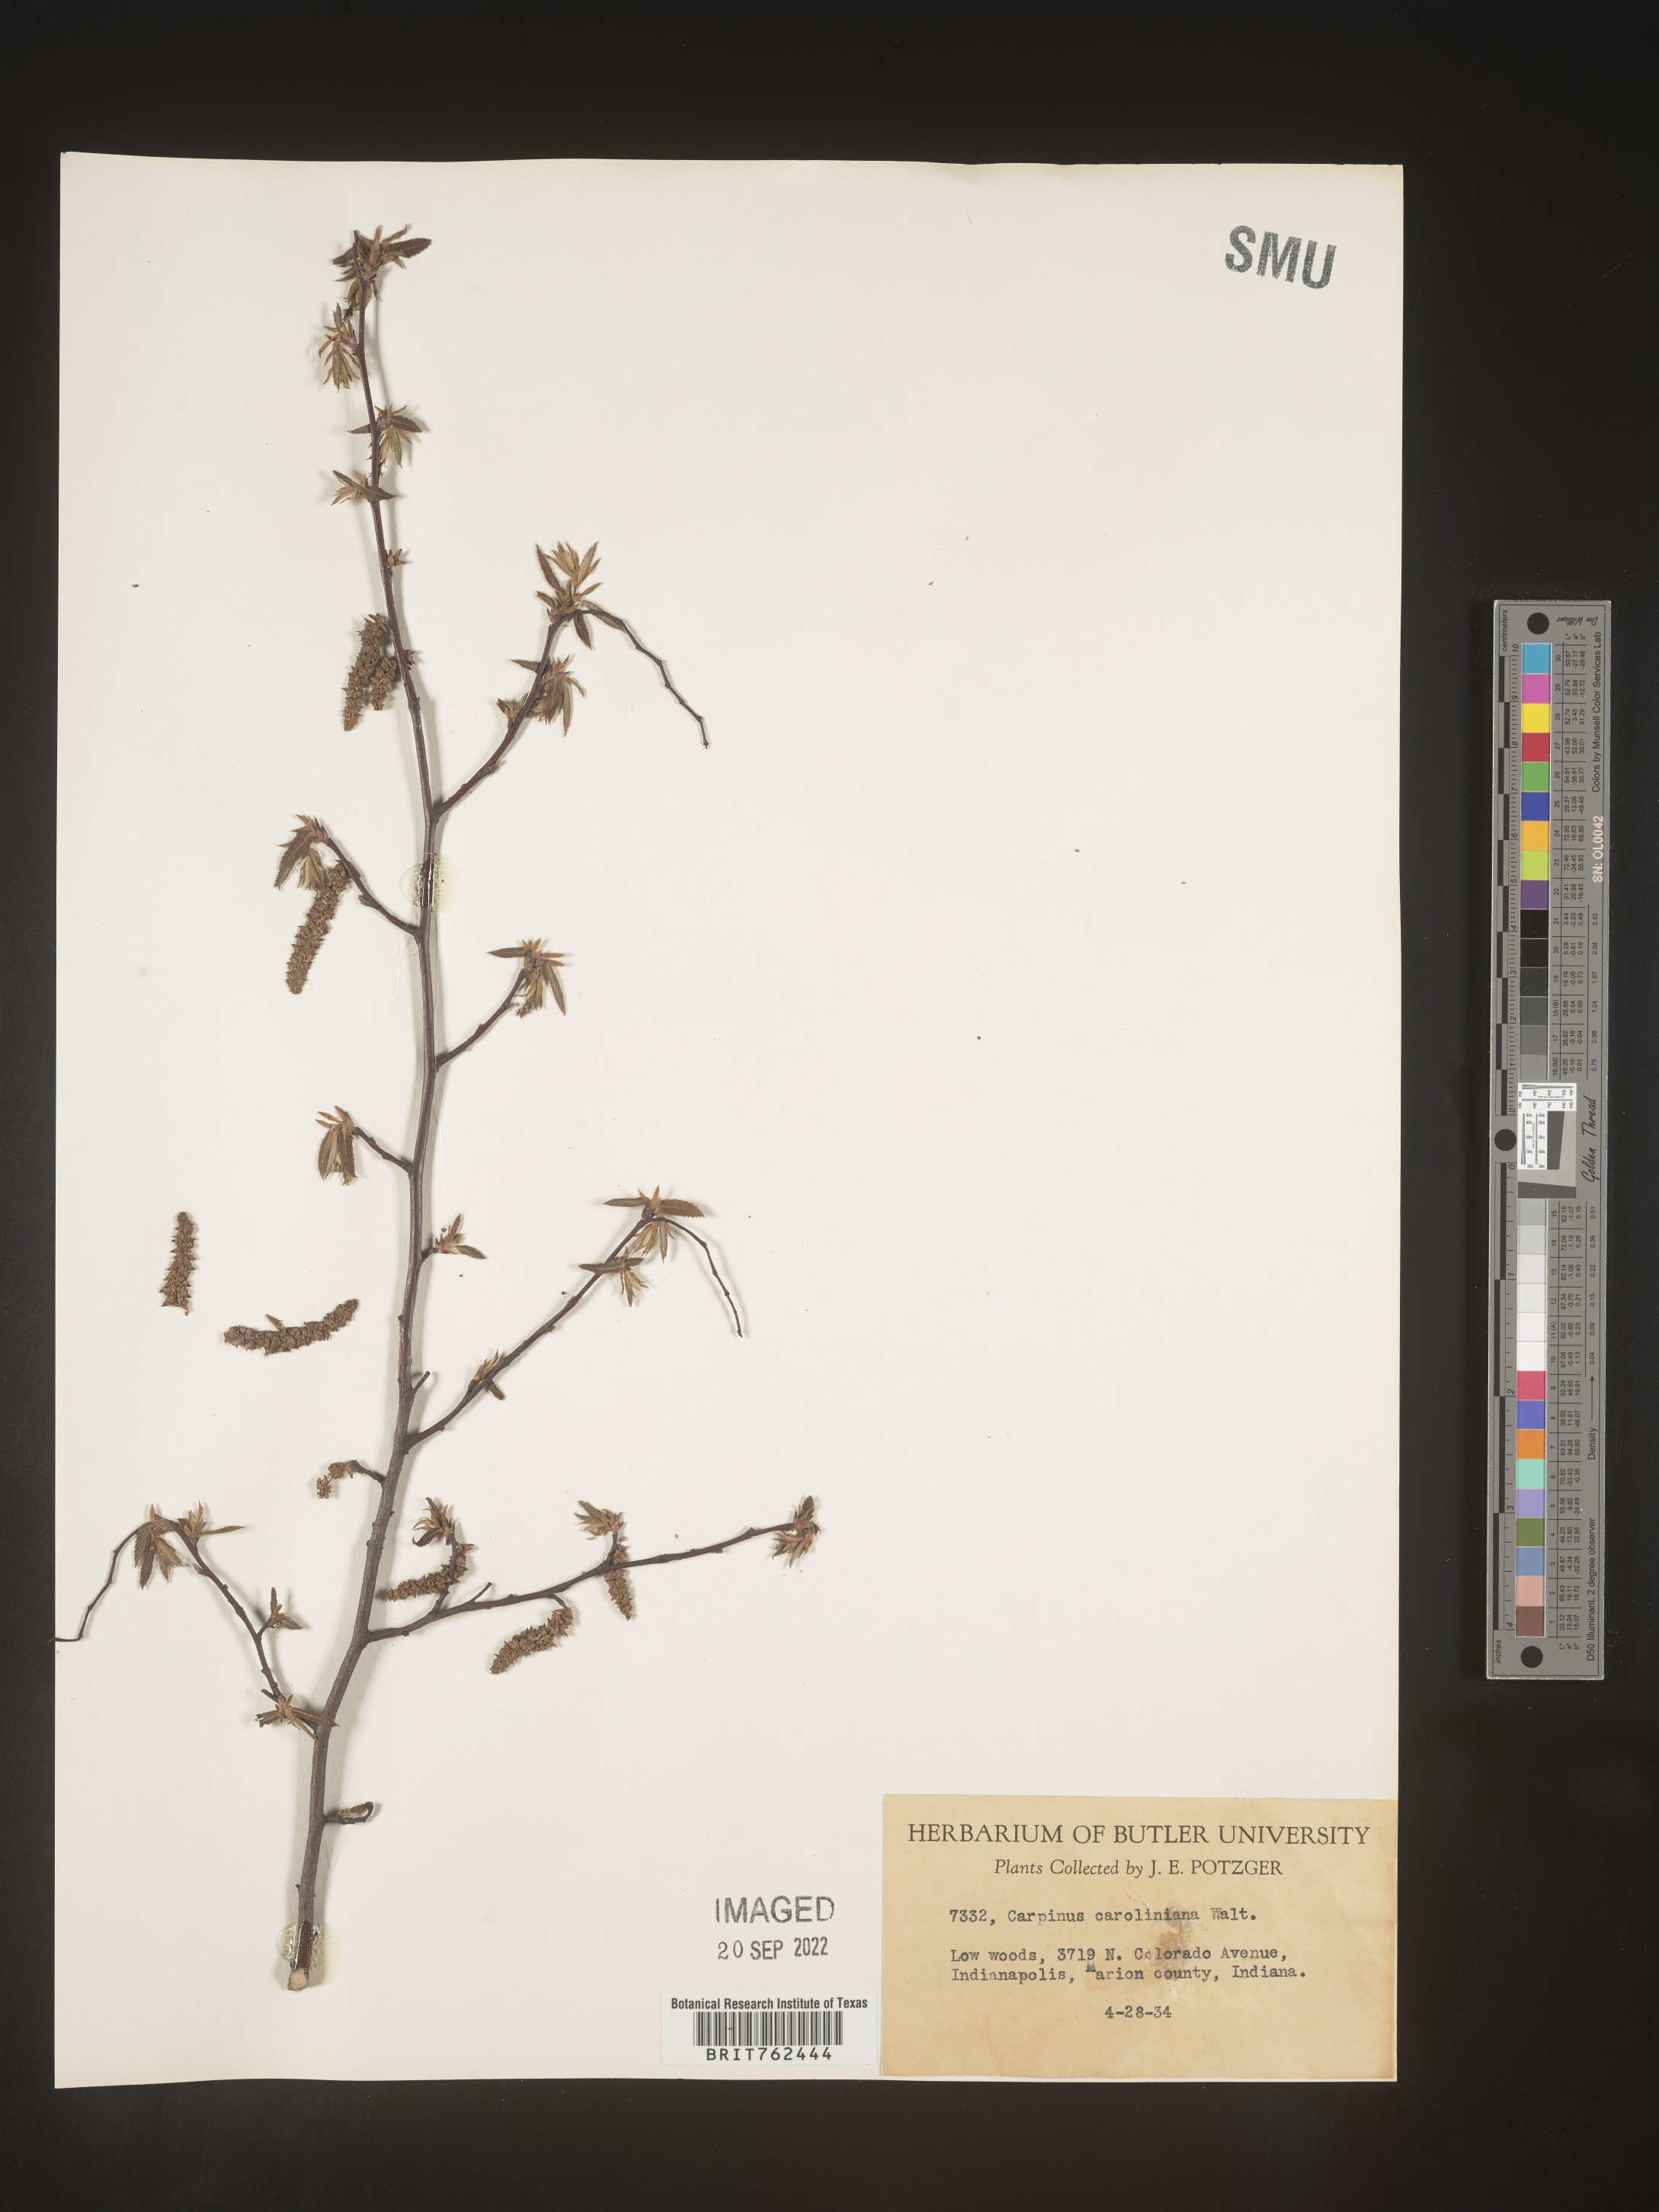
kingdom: Plantae
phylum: Tracheophyta
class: Magnoliopsida
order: Fagales
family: Betulaceae
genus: Carpinus
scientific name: Carpinus caroliniana
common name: American hornbeam
